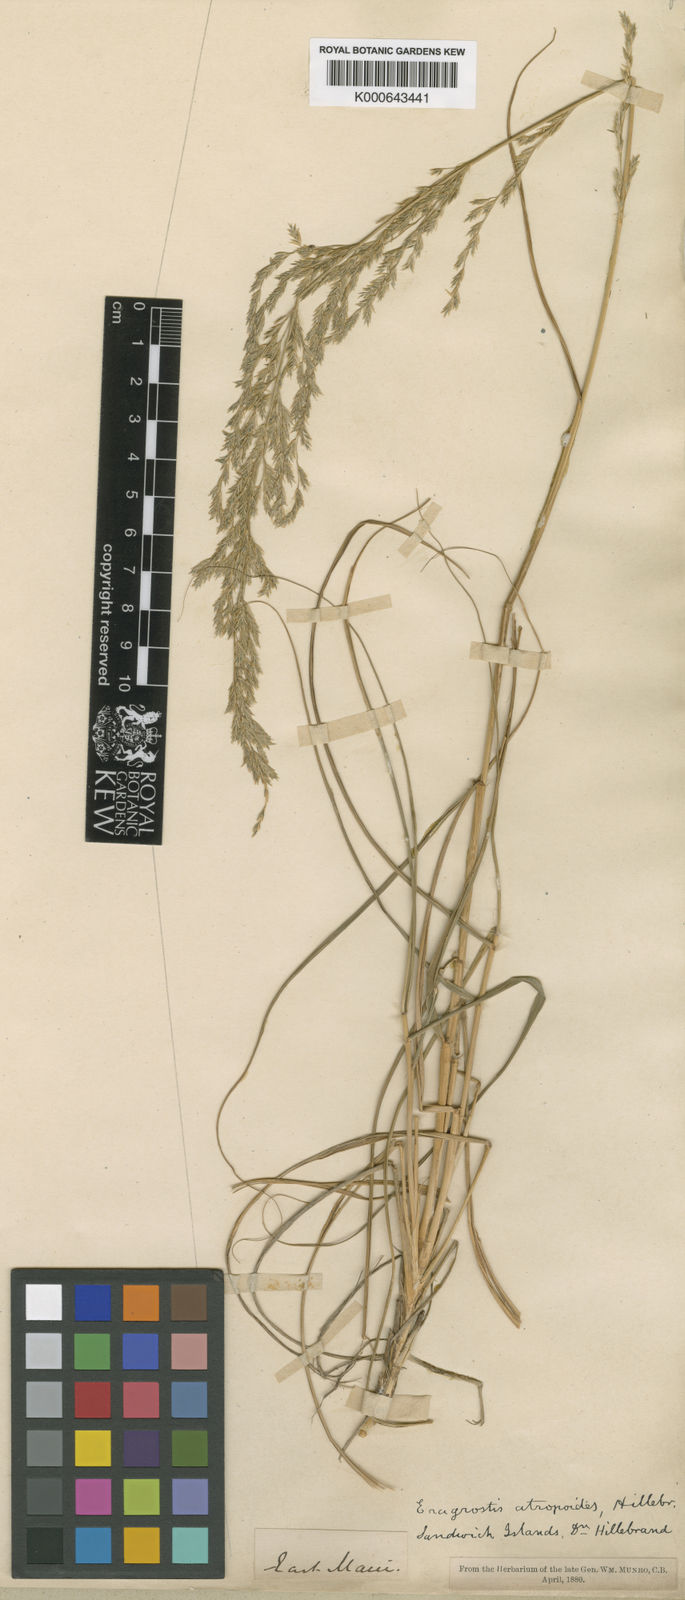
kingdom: Plantae
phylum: Tracheophyta
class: Liliopsida
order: Poales
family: Poaceae
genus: Eragrostis
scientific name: Eragrostis atropioides
